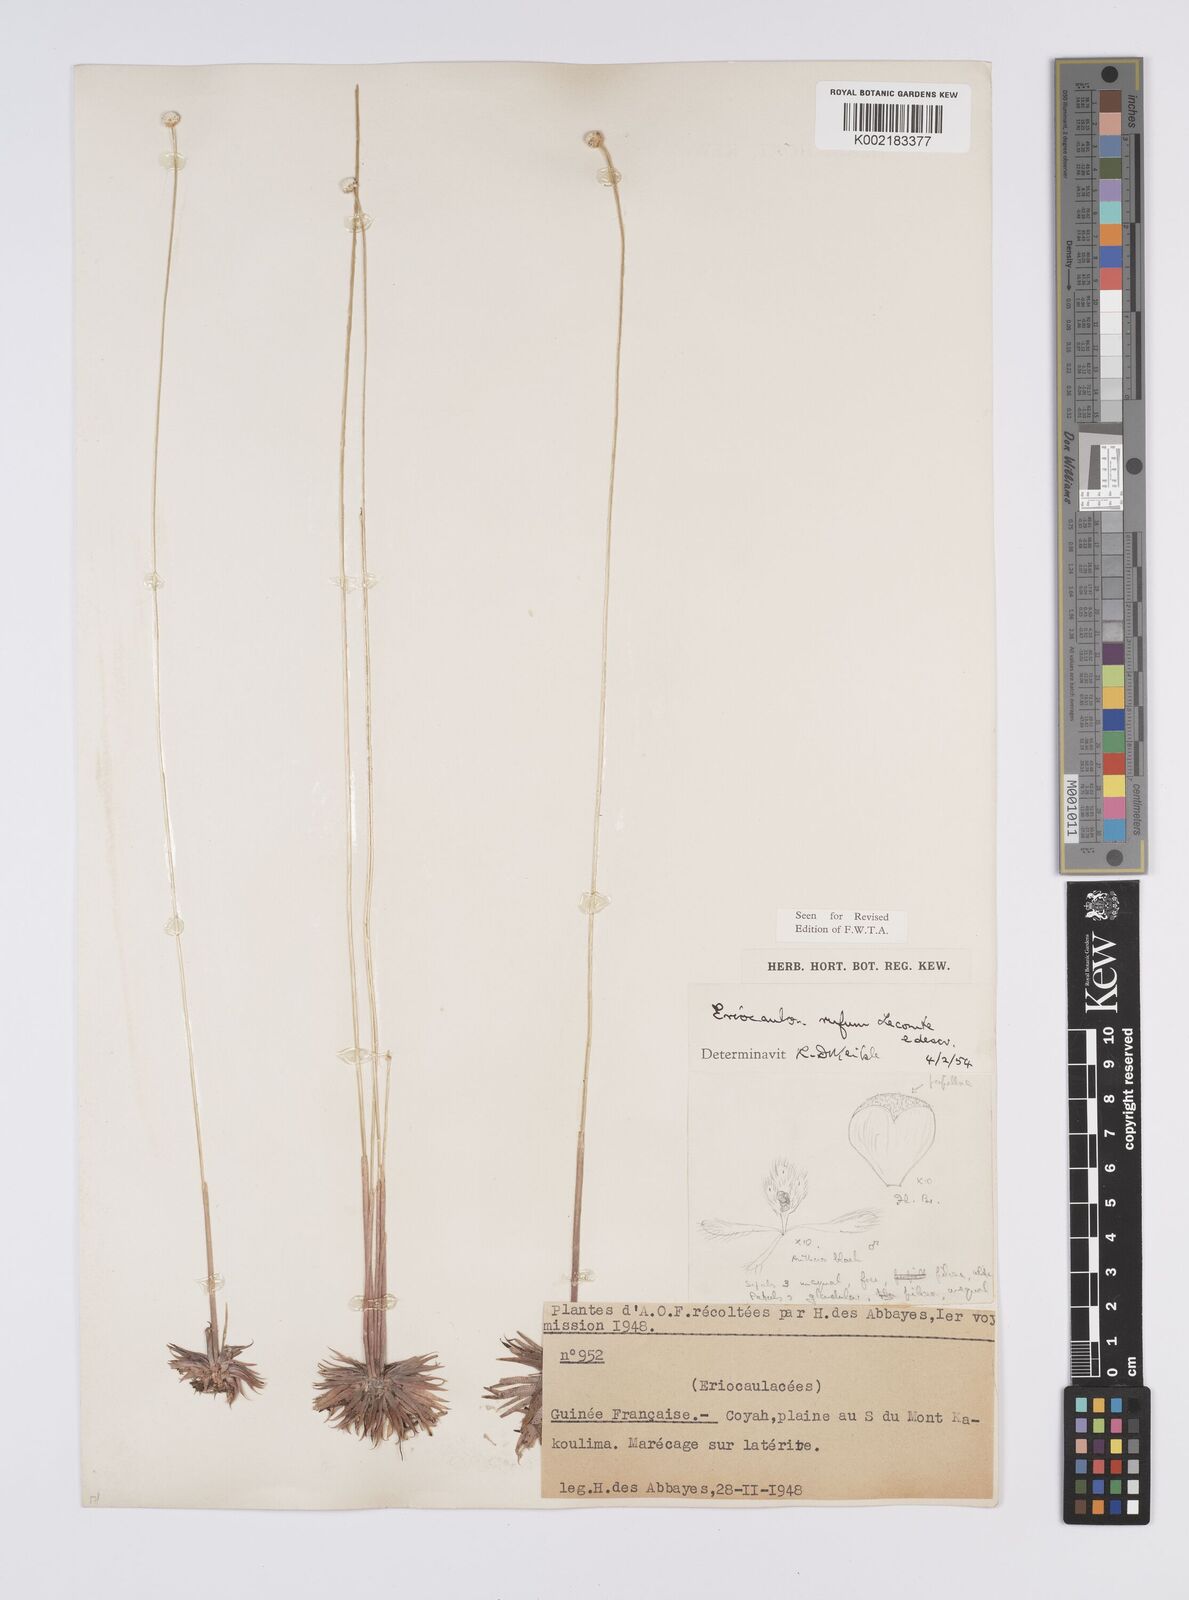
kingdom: Plantae
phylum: Tracheophyta
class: Liliopsida
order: Poales
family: Eriocaulaceae
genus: Eriocaulon
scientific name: Eriocaulon rufum
